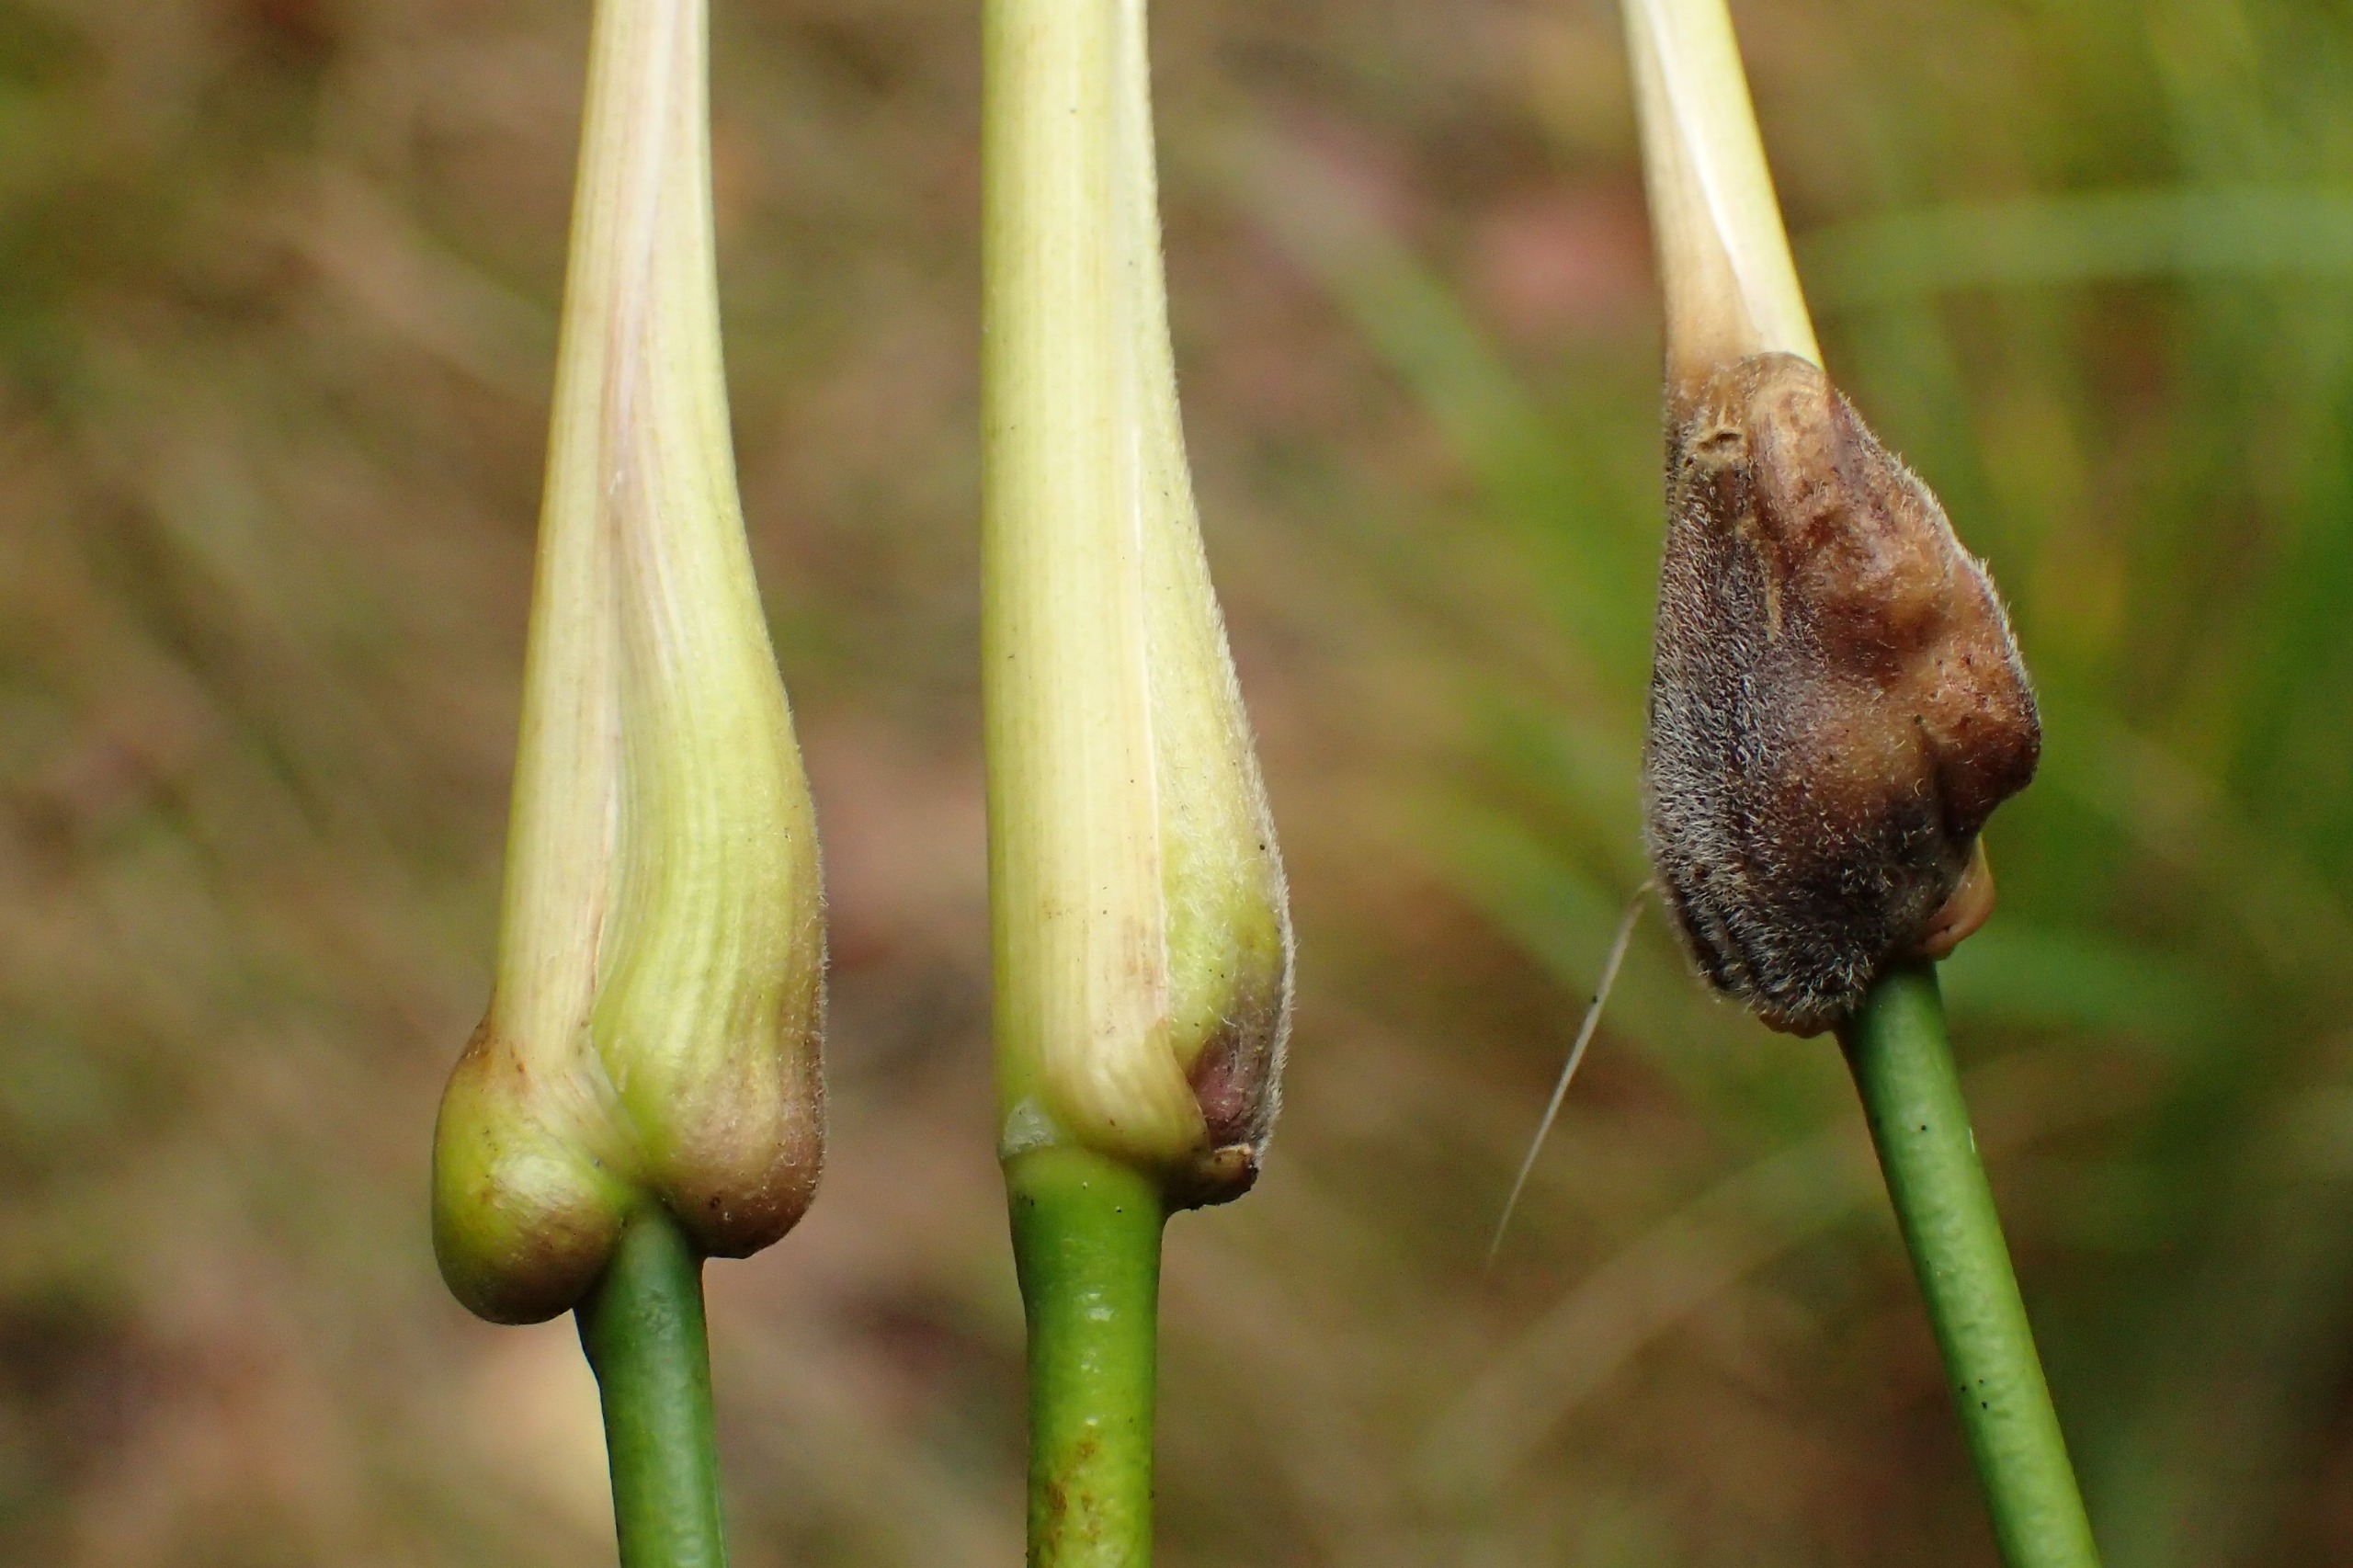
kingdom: Animalia
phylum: Arthropoda
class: Insecta
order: Diptera
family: Cecidomyiidae
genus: Mayetiola
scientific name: Mayetiola ventricolus
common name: Blåtopgalmyg
